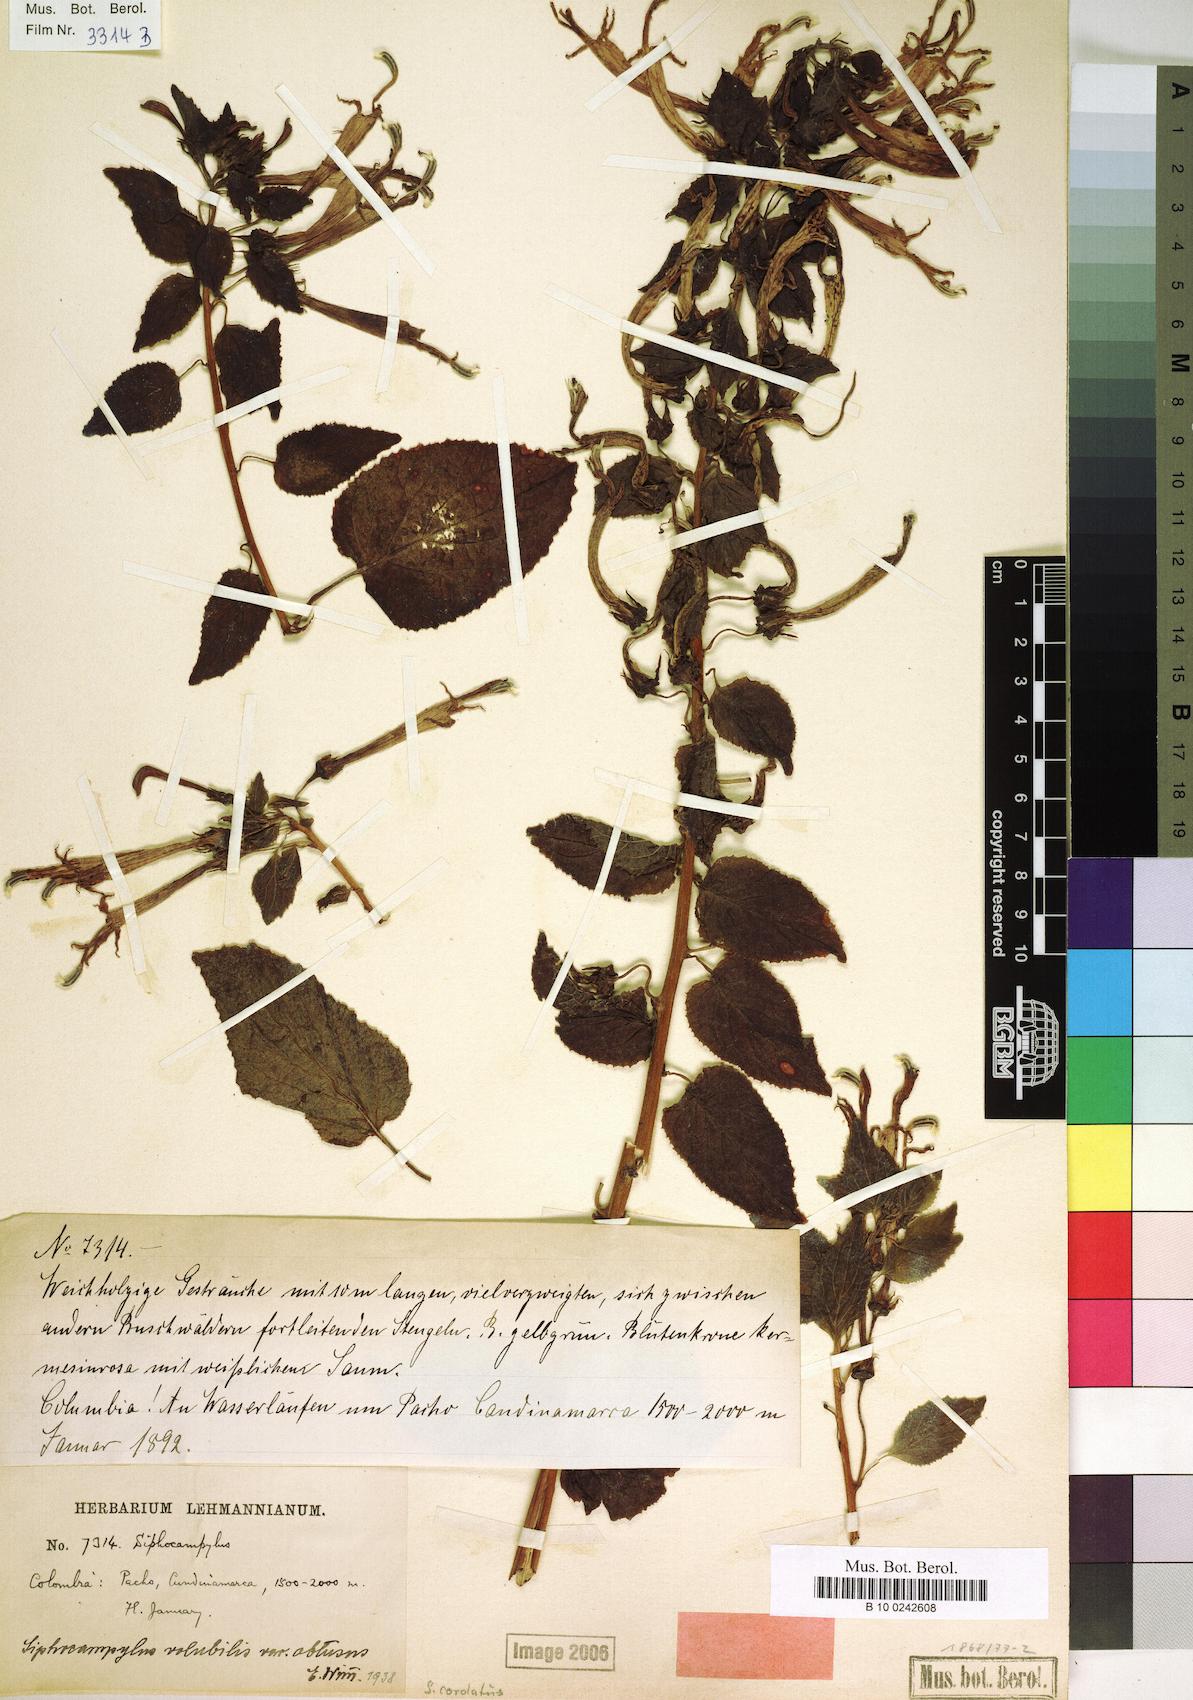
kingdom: Plantae
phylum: Tracheophyta
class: Magnoliopsida
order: Asterales
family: Campanulaceae
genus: Siphocampylus
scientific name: Siphocampylus cordatus
